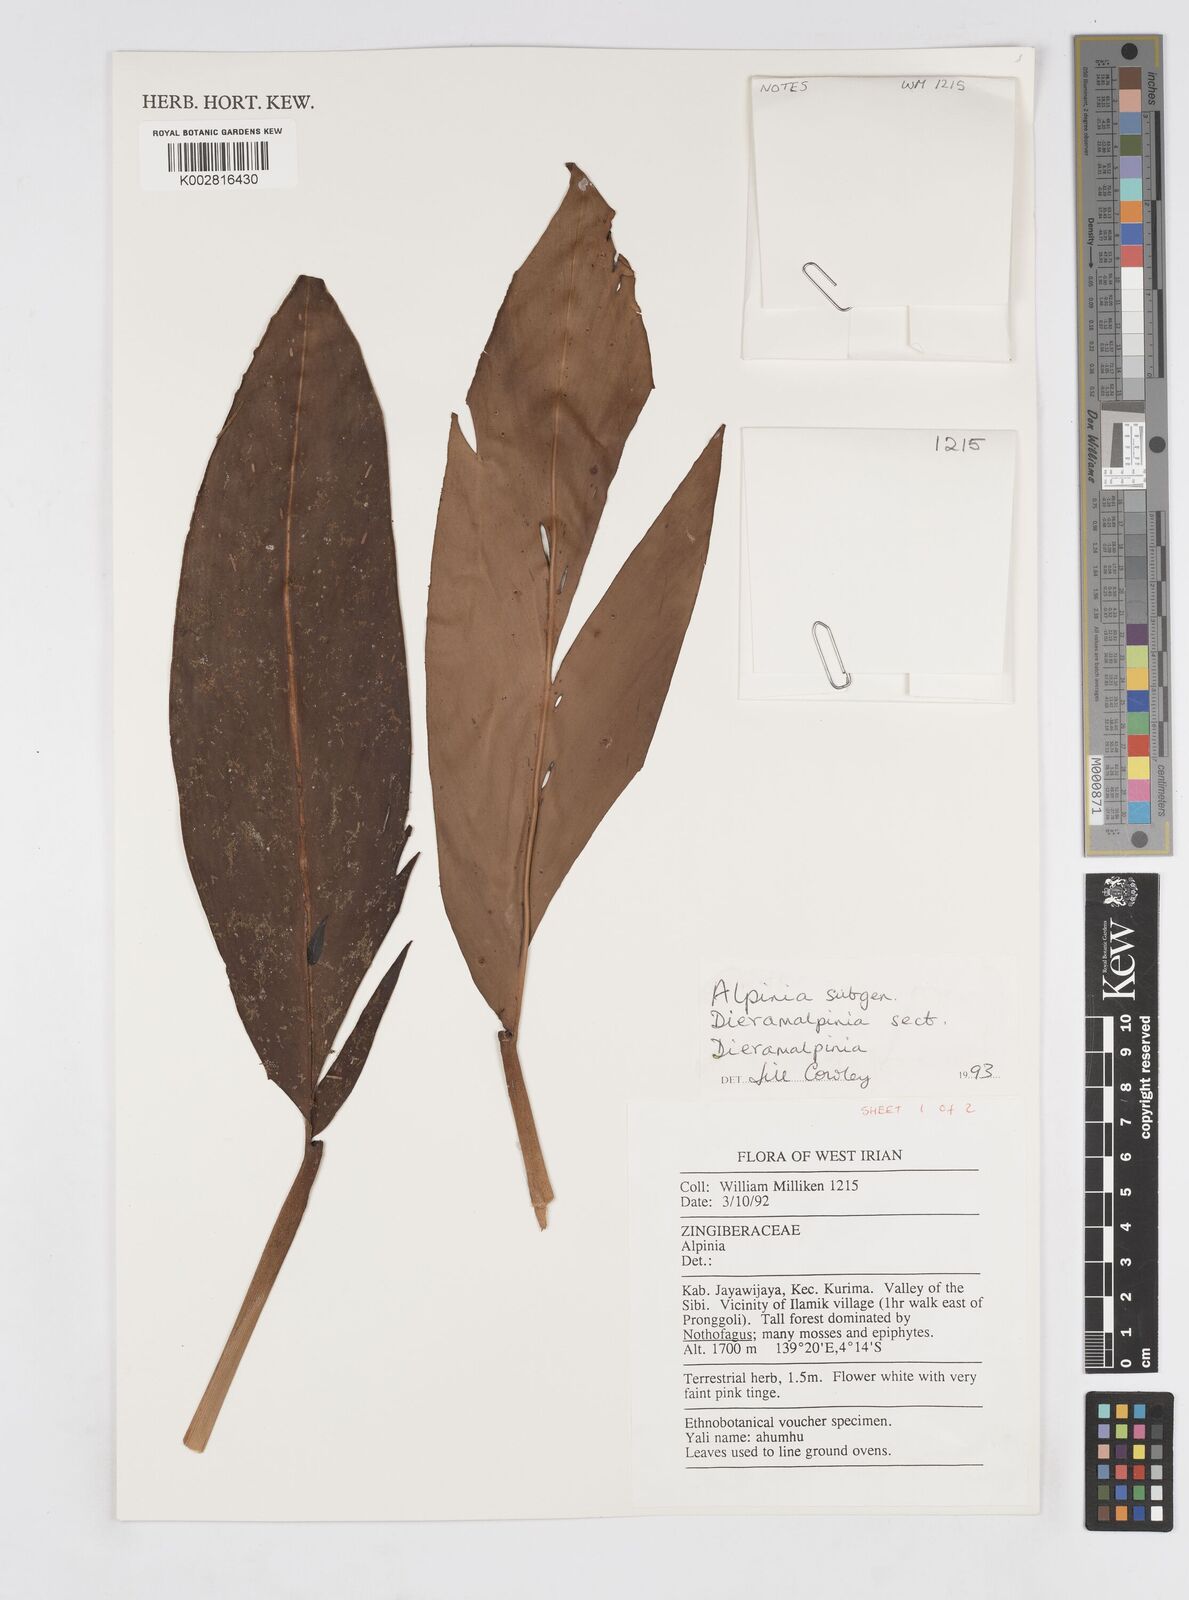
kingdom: Plantae
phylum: Tracheophyta
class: Liliopsida
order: Zingiberales
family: Zingiberaceae
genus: Alpinia
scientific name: Alpinia
